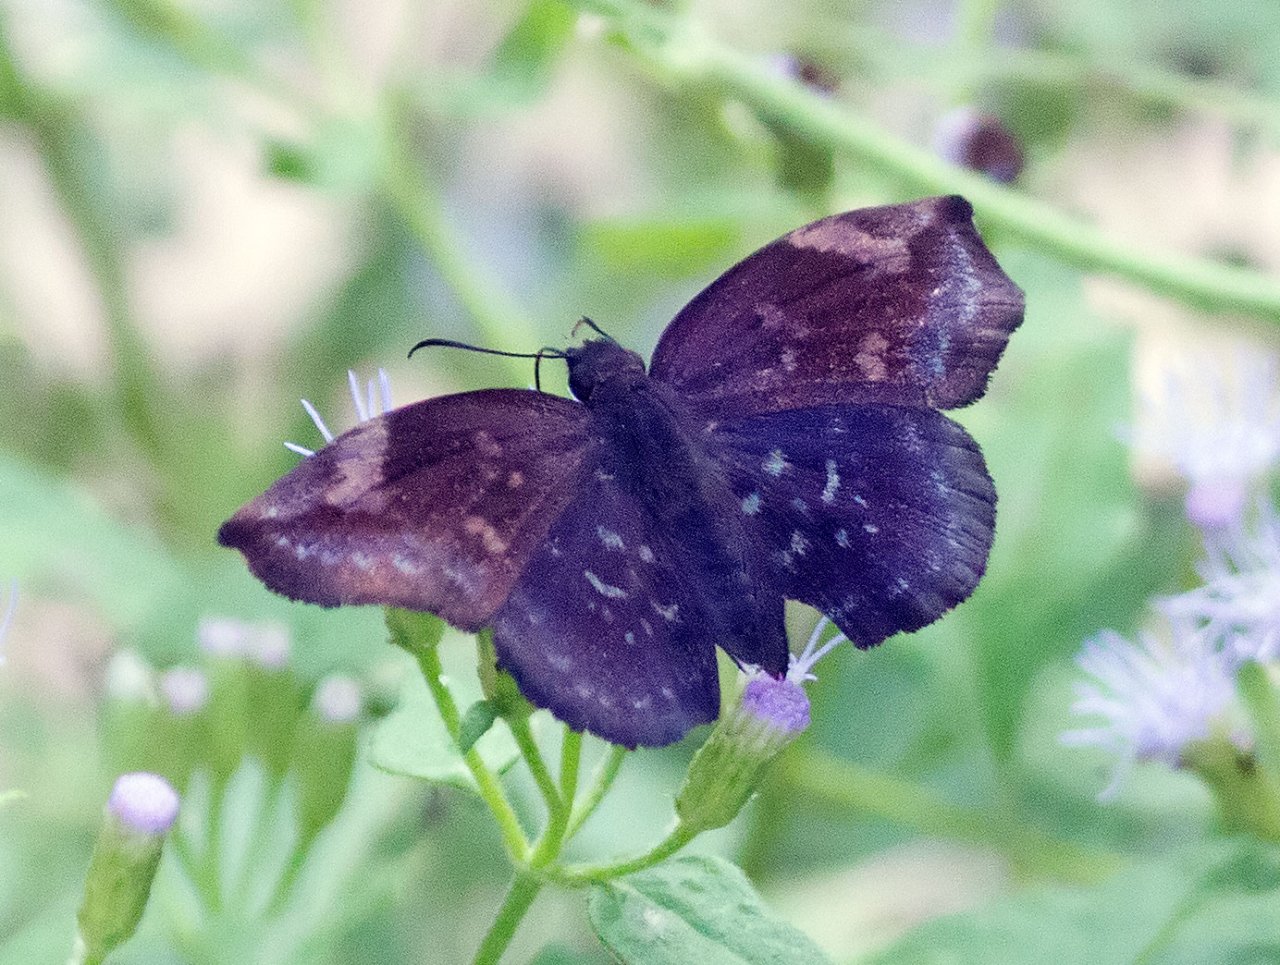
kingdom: Animalia
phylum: Arthropoda
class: Insecta
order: Lepidoptera
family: Hesperiidae
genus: Achlyodes
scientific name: Achlyodes thraso
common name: Sickle-winged Skipper
